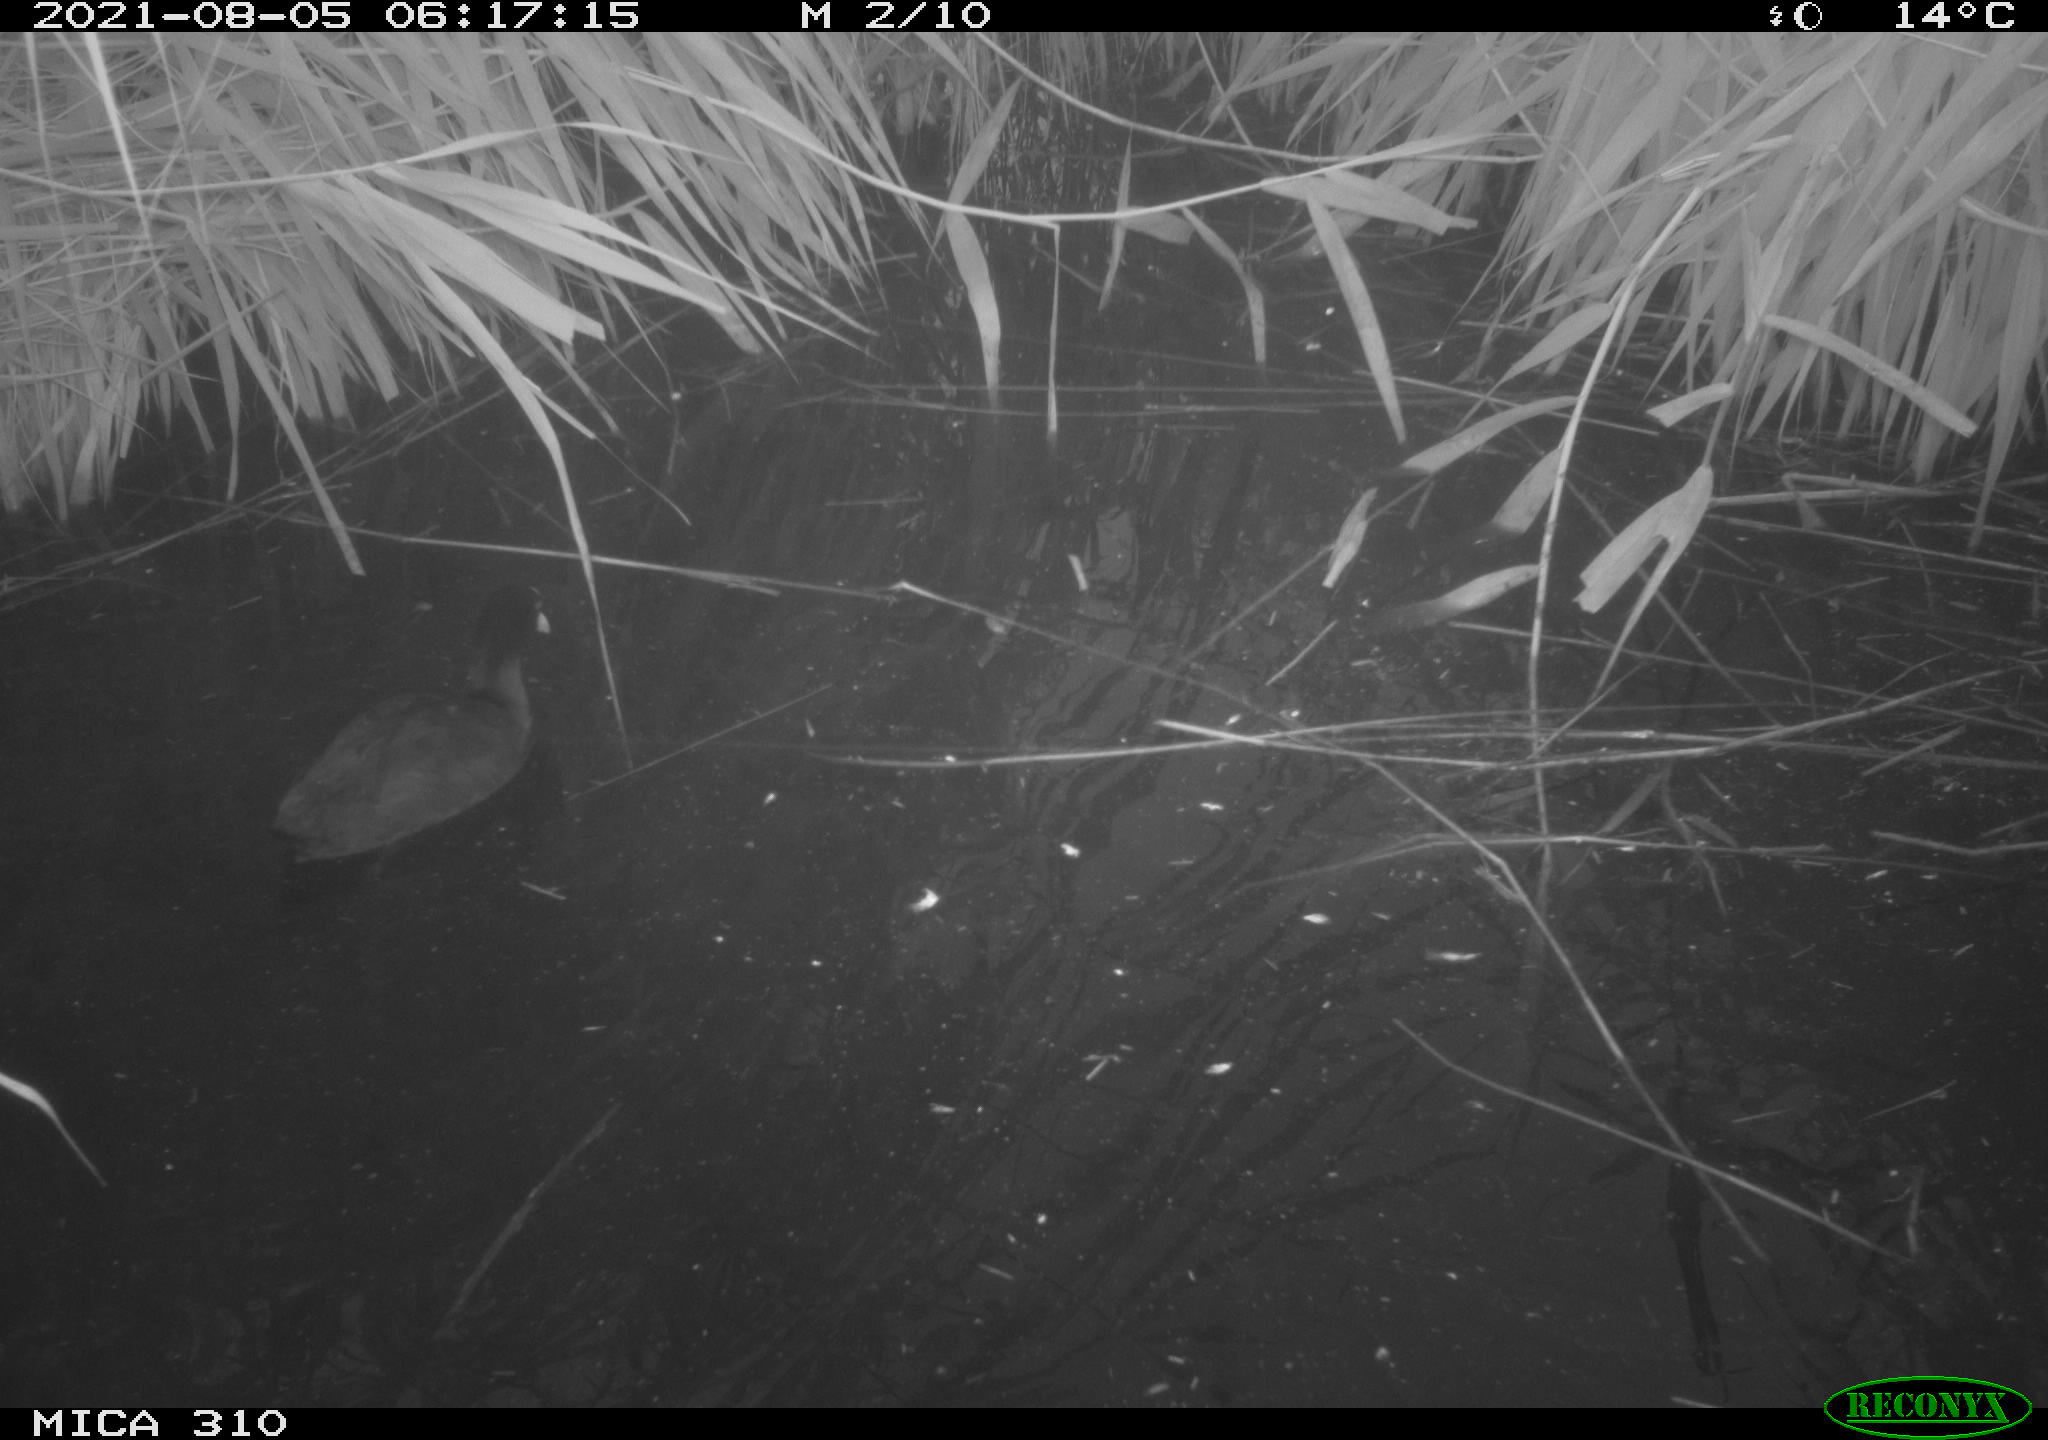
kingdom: Animalia
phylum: Chordata
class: Aves
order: Gruiformes
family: Rallidae
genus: Fulica
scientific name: Fulica atra
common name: Eurasian coot
